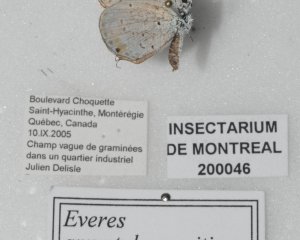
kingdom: Animalia
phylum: Arthropoda
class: Insecta
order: Lepidoptera
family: Lycaenidae
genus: Elkalyce
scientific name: Elkalyce amyntula
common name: Western Tailed-Blue
